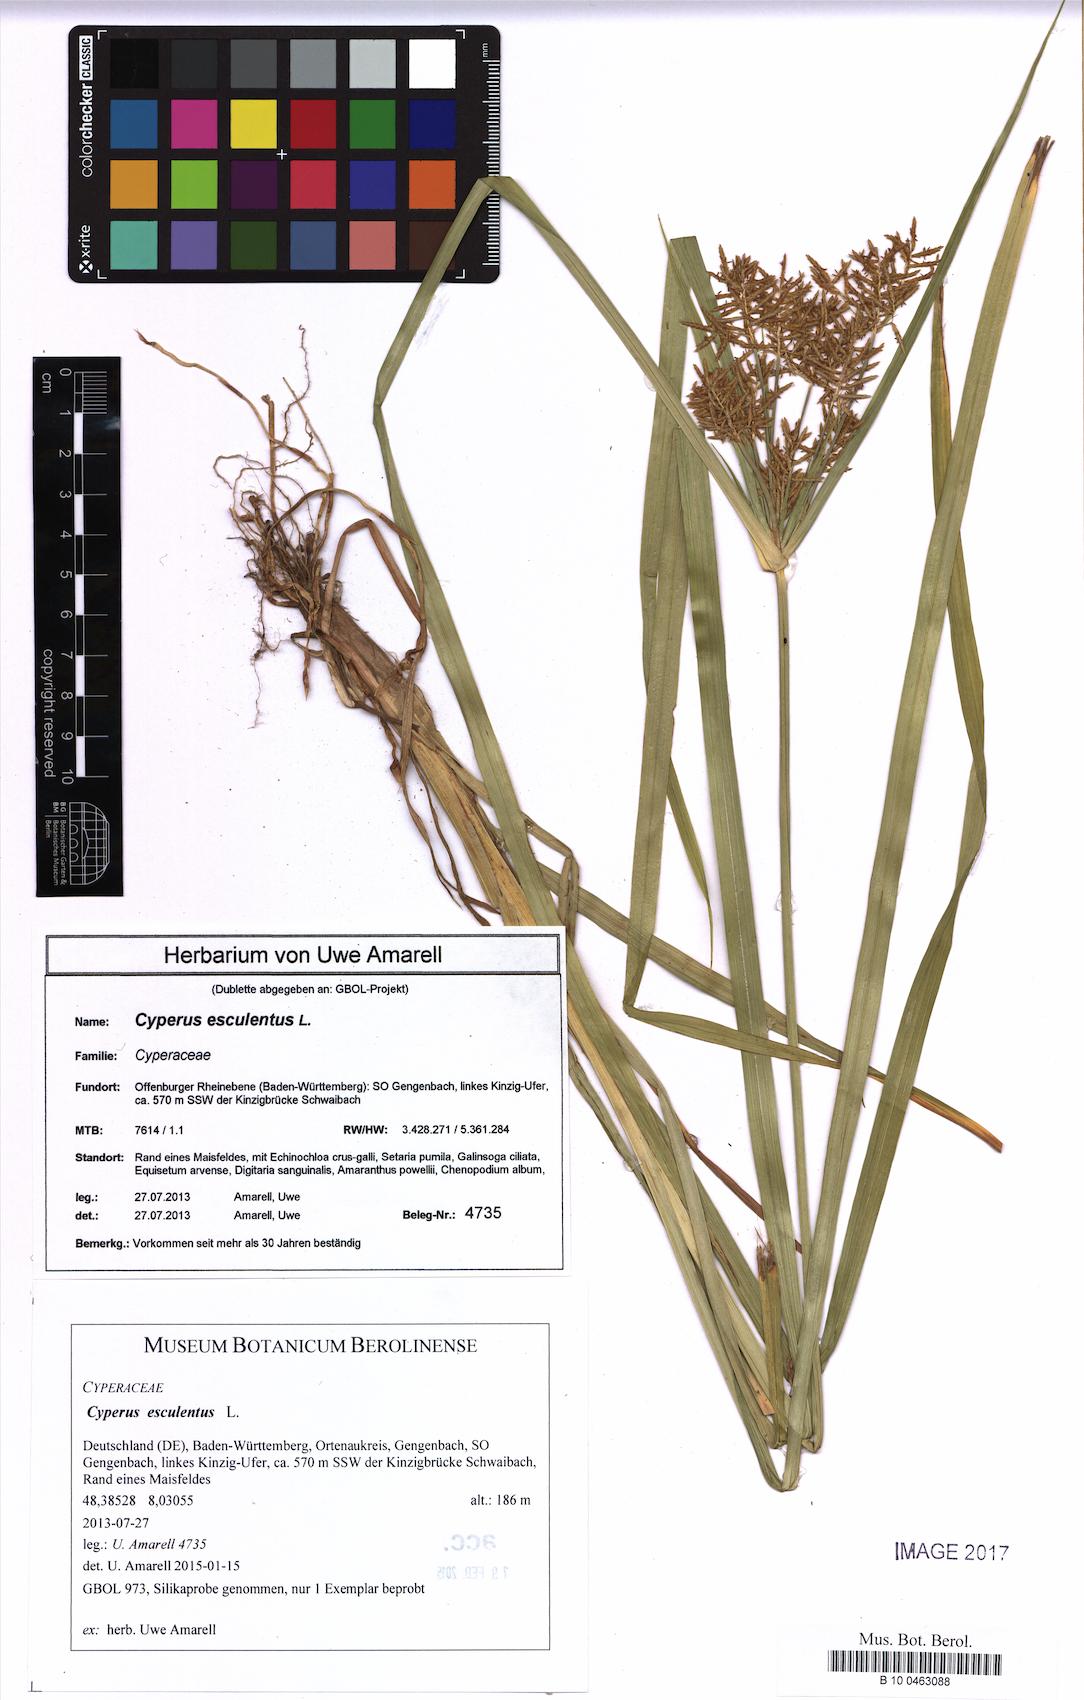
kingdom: Plantae
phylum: Tracheophyta
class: Liliopsida
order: Poales
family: Cyperaceae
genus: Cyperus
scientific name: Cyperus esculentus
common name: Yellow nutsedge
